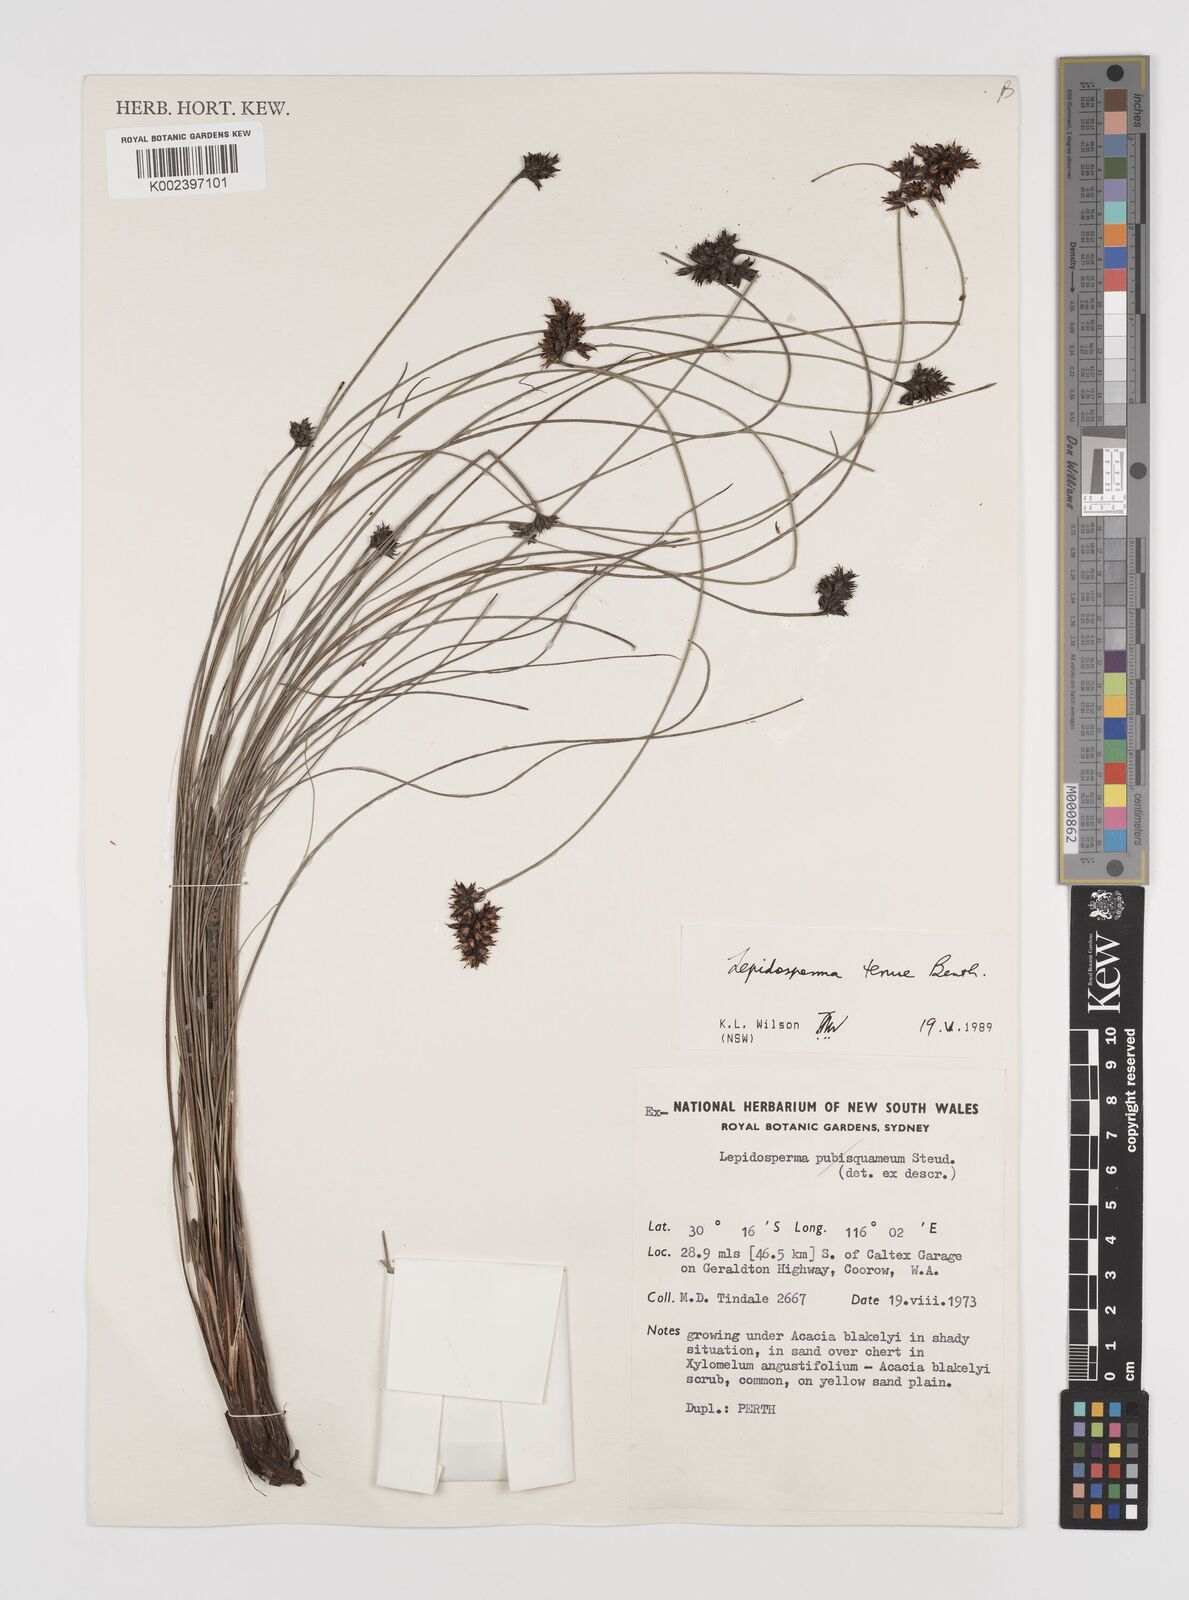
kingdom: Plantae
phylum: Tracheophyta
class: Liliopsida
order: Poales
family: Cyperaceae
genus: Lepidosperma
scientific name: Lepidosperma tenue
